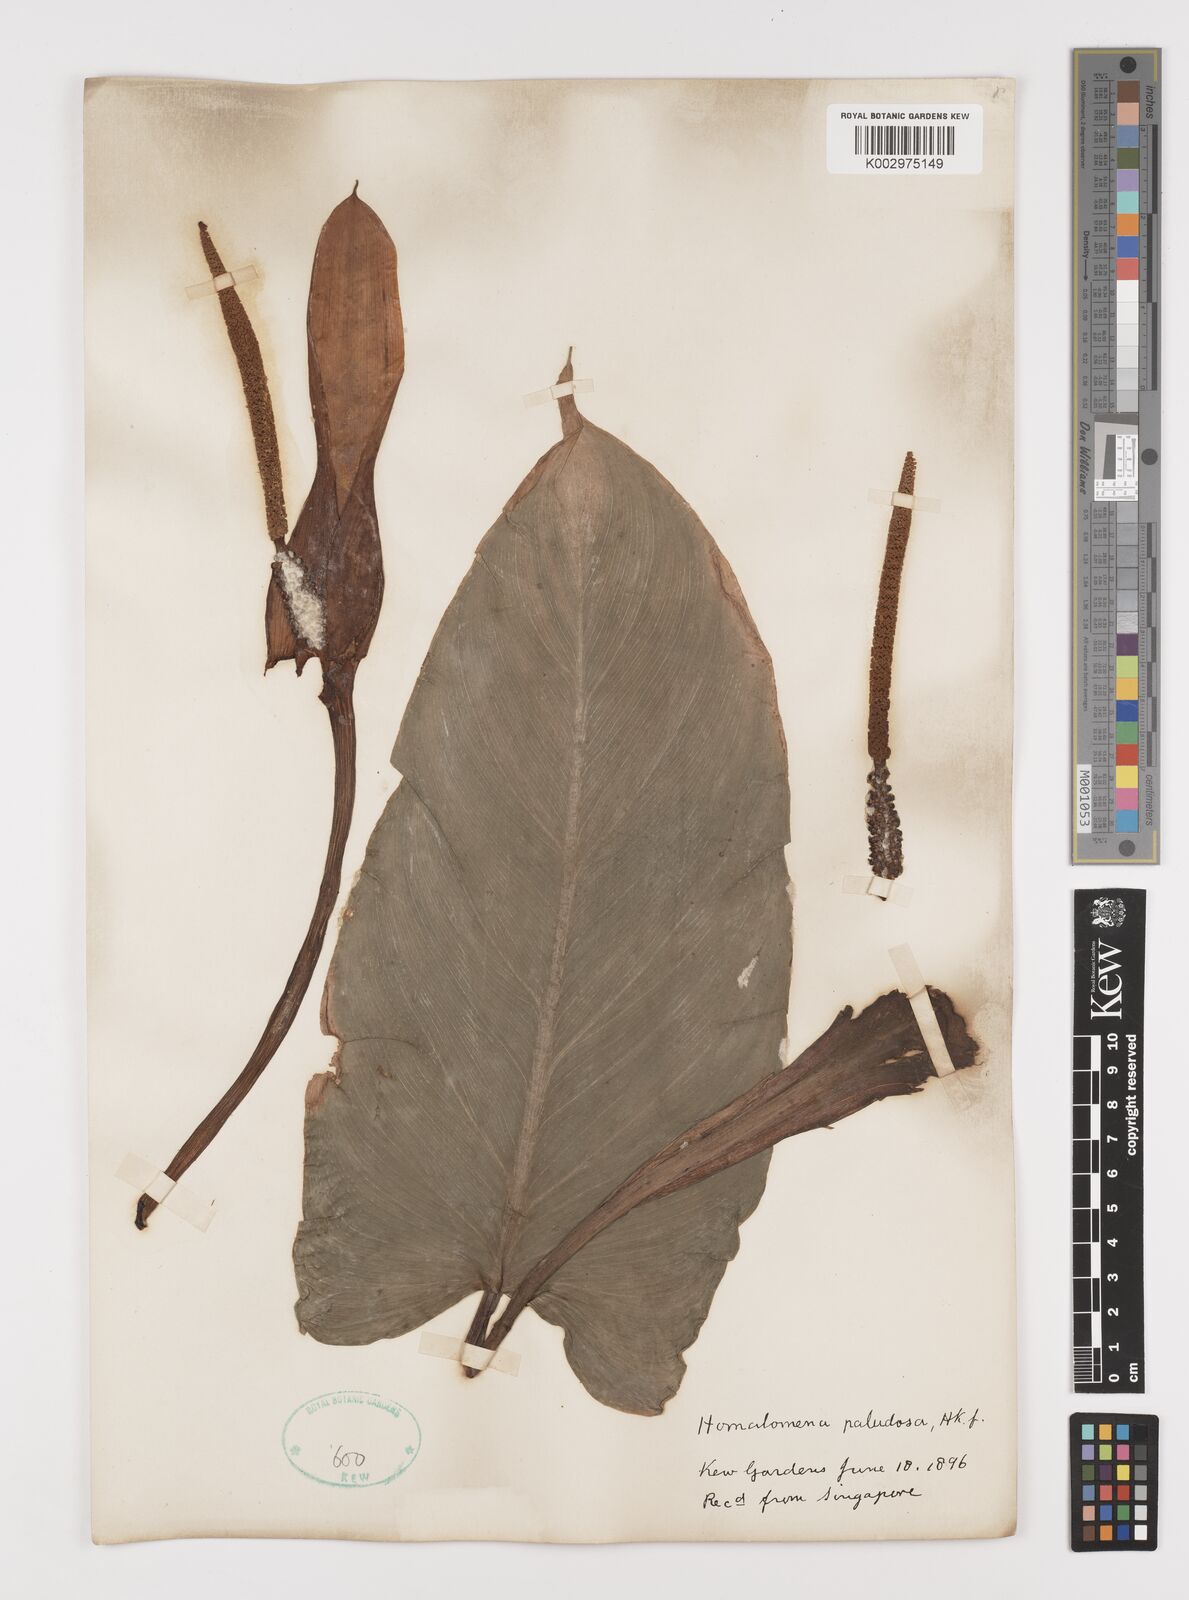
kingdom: Plantae
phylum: Tracheophyta
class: Liliopsida
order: Alismatales
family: Araceae
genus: Homalomena
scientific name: Homalomena rostrata
